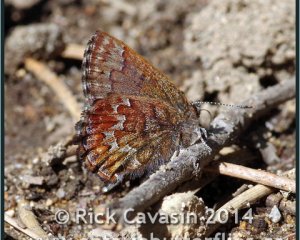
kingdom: Animalia
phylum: Arthropoda
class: Insecta
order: Lepidoptera
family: Lycaenidae
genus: Incisalia
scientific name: Incisalia niphon
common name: Eastern Pine Elfin
